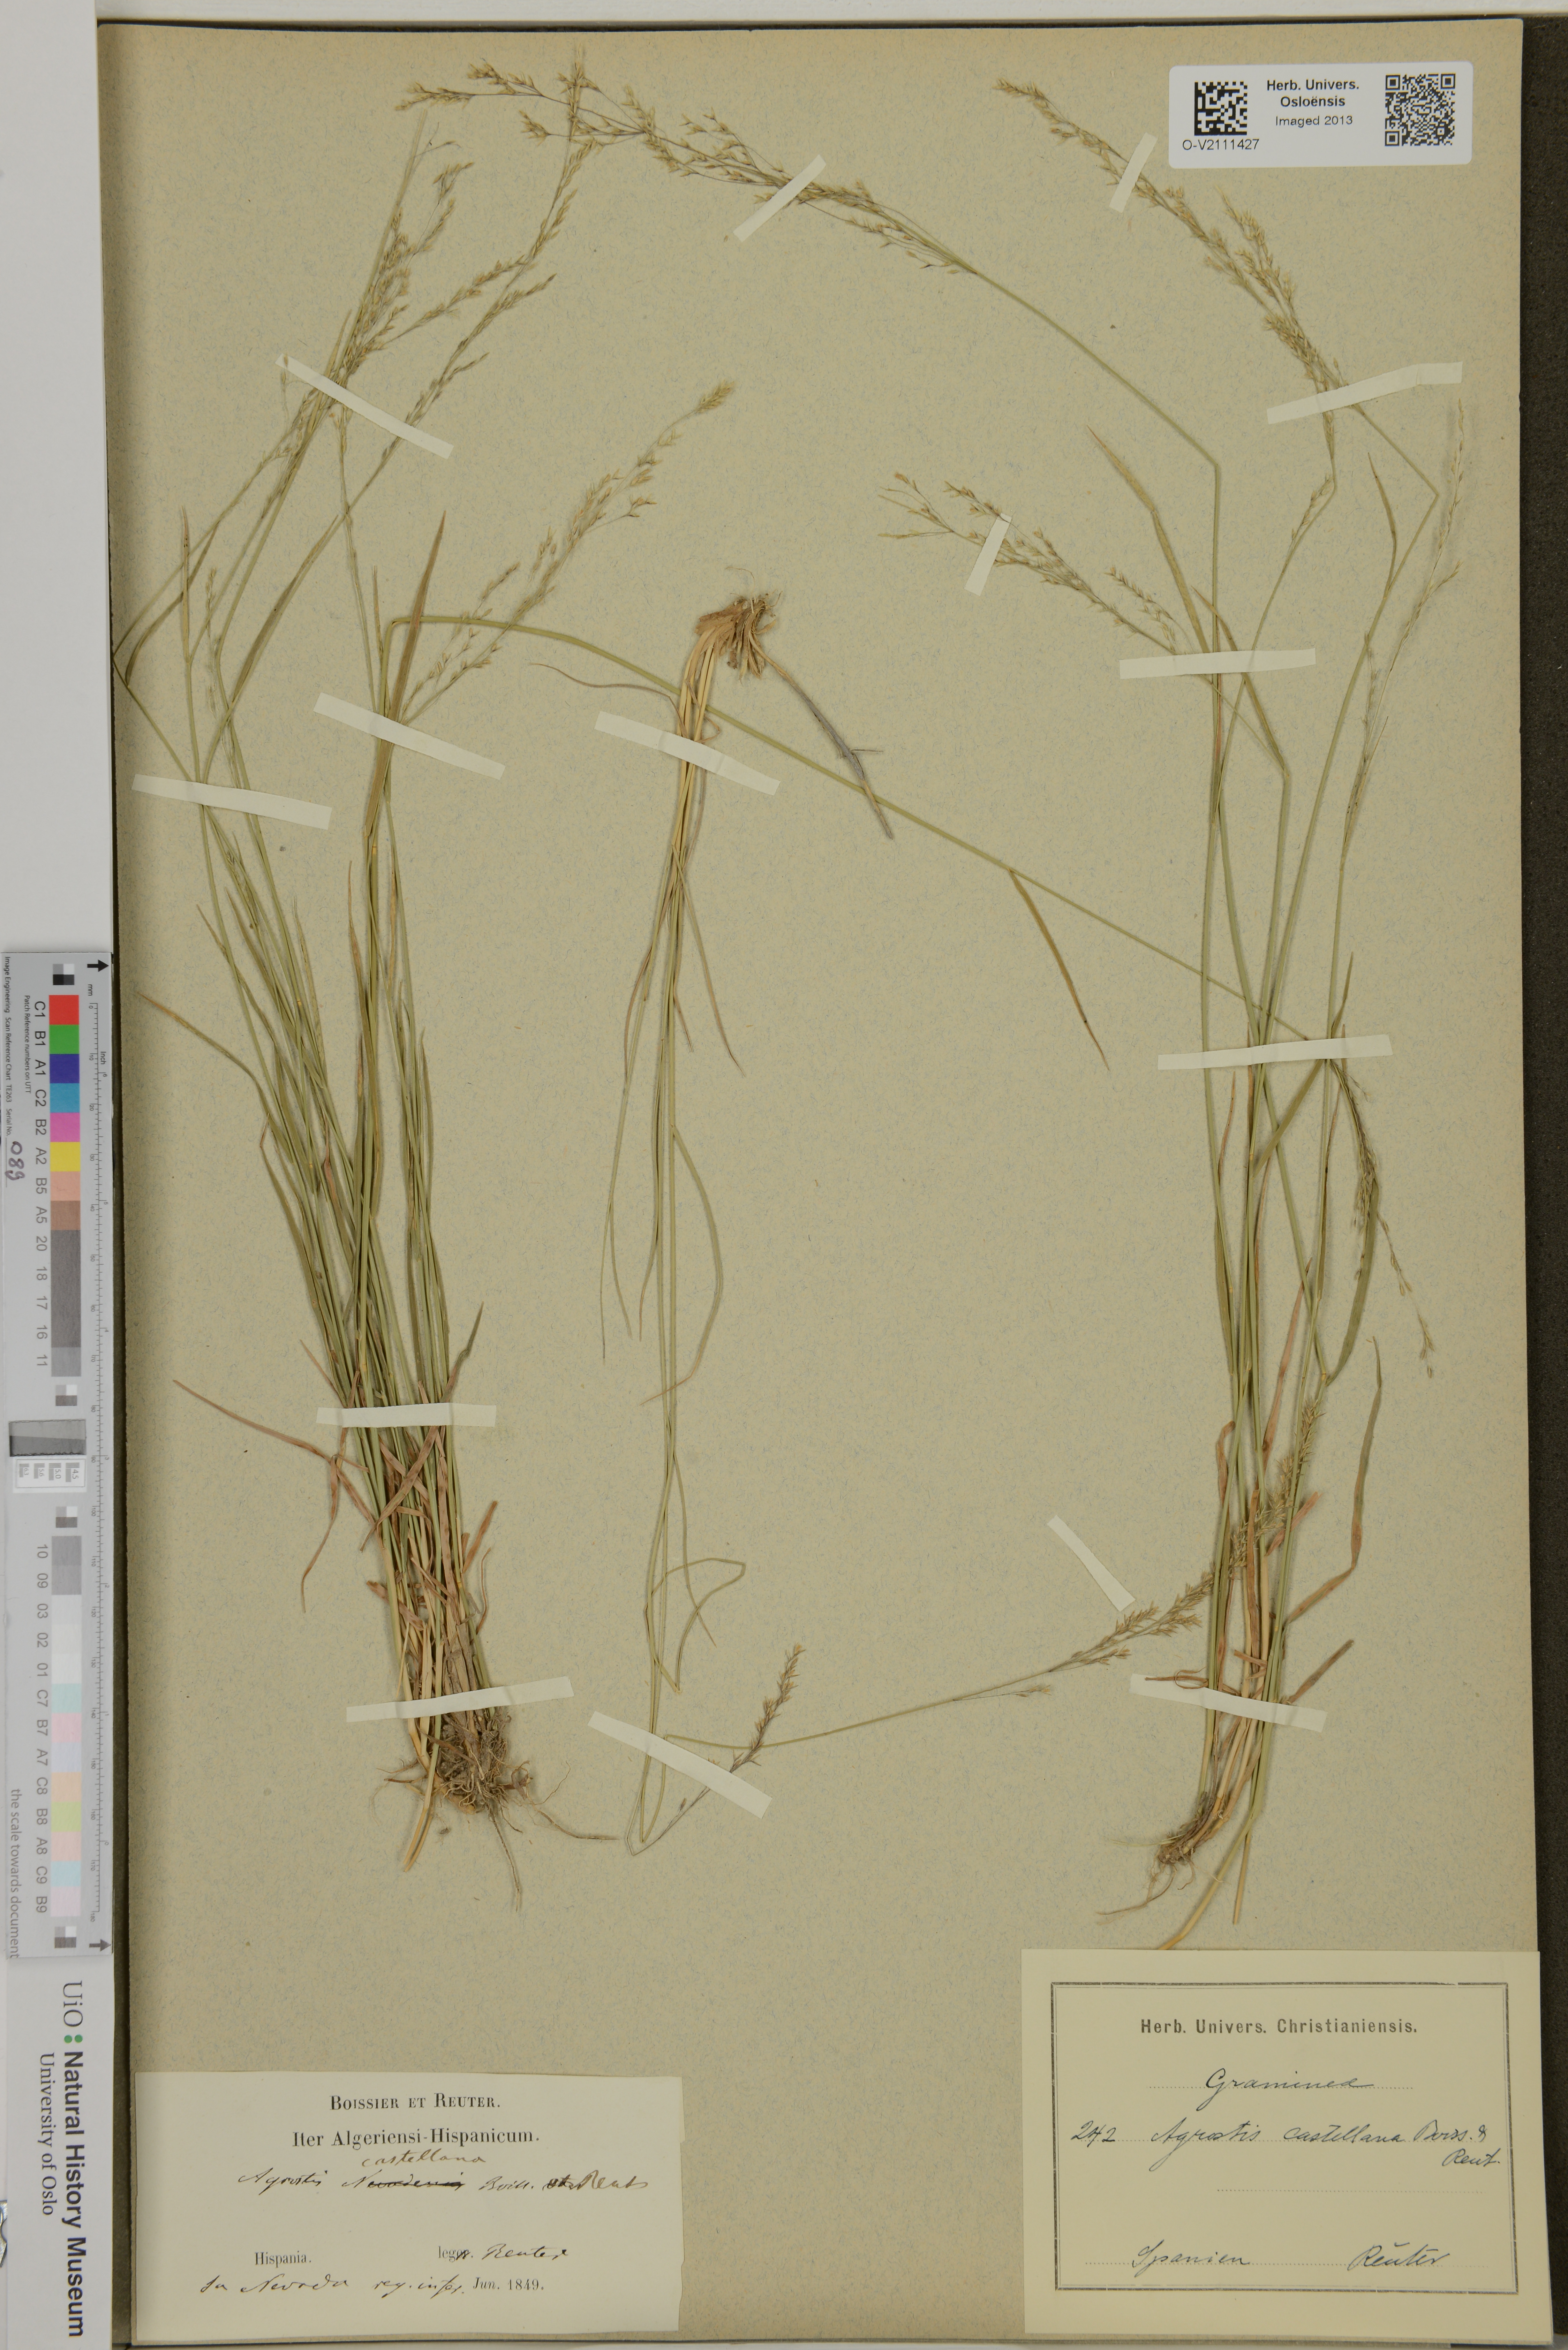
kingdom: Plantae
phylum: Tracheophyta
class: Liliopsida
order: Poales
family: Poaceae
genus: Agrostis
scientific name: Agrostis castellana
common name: Highland bent
